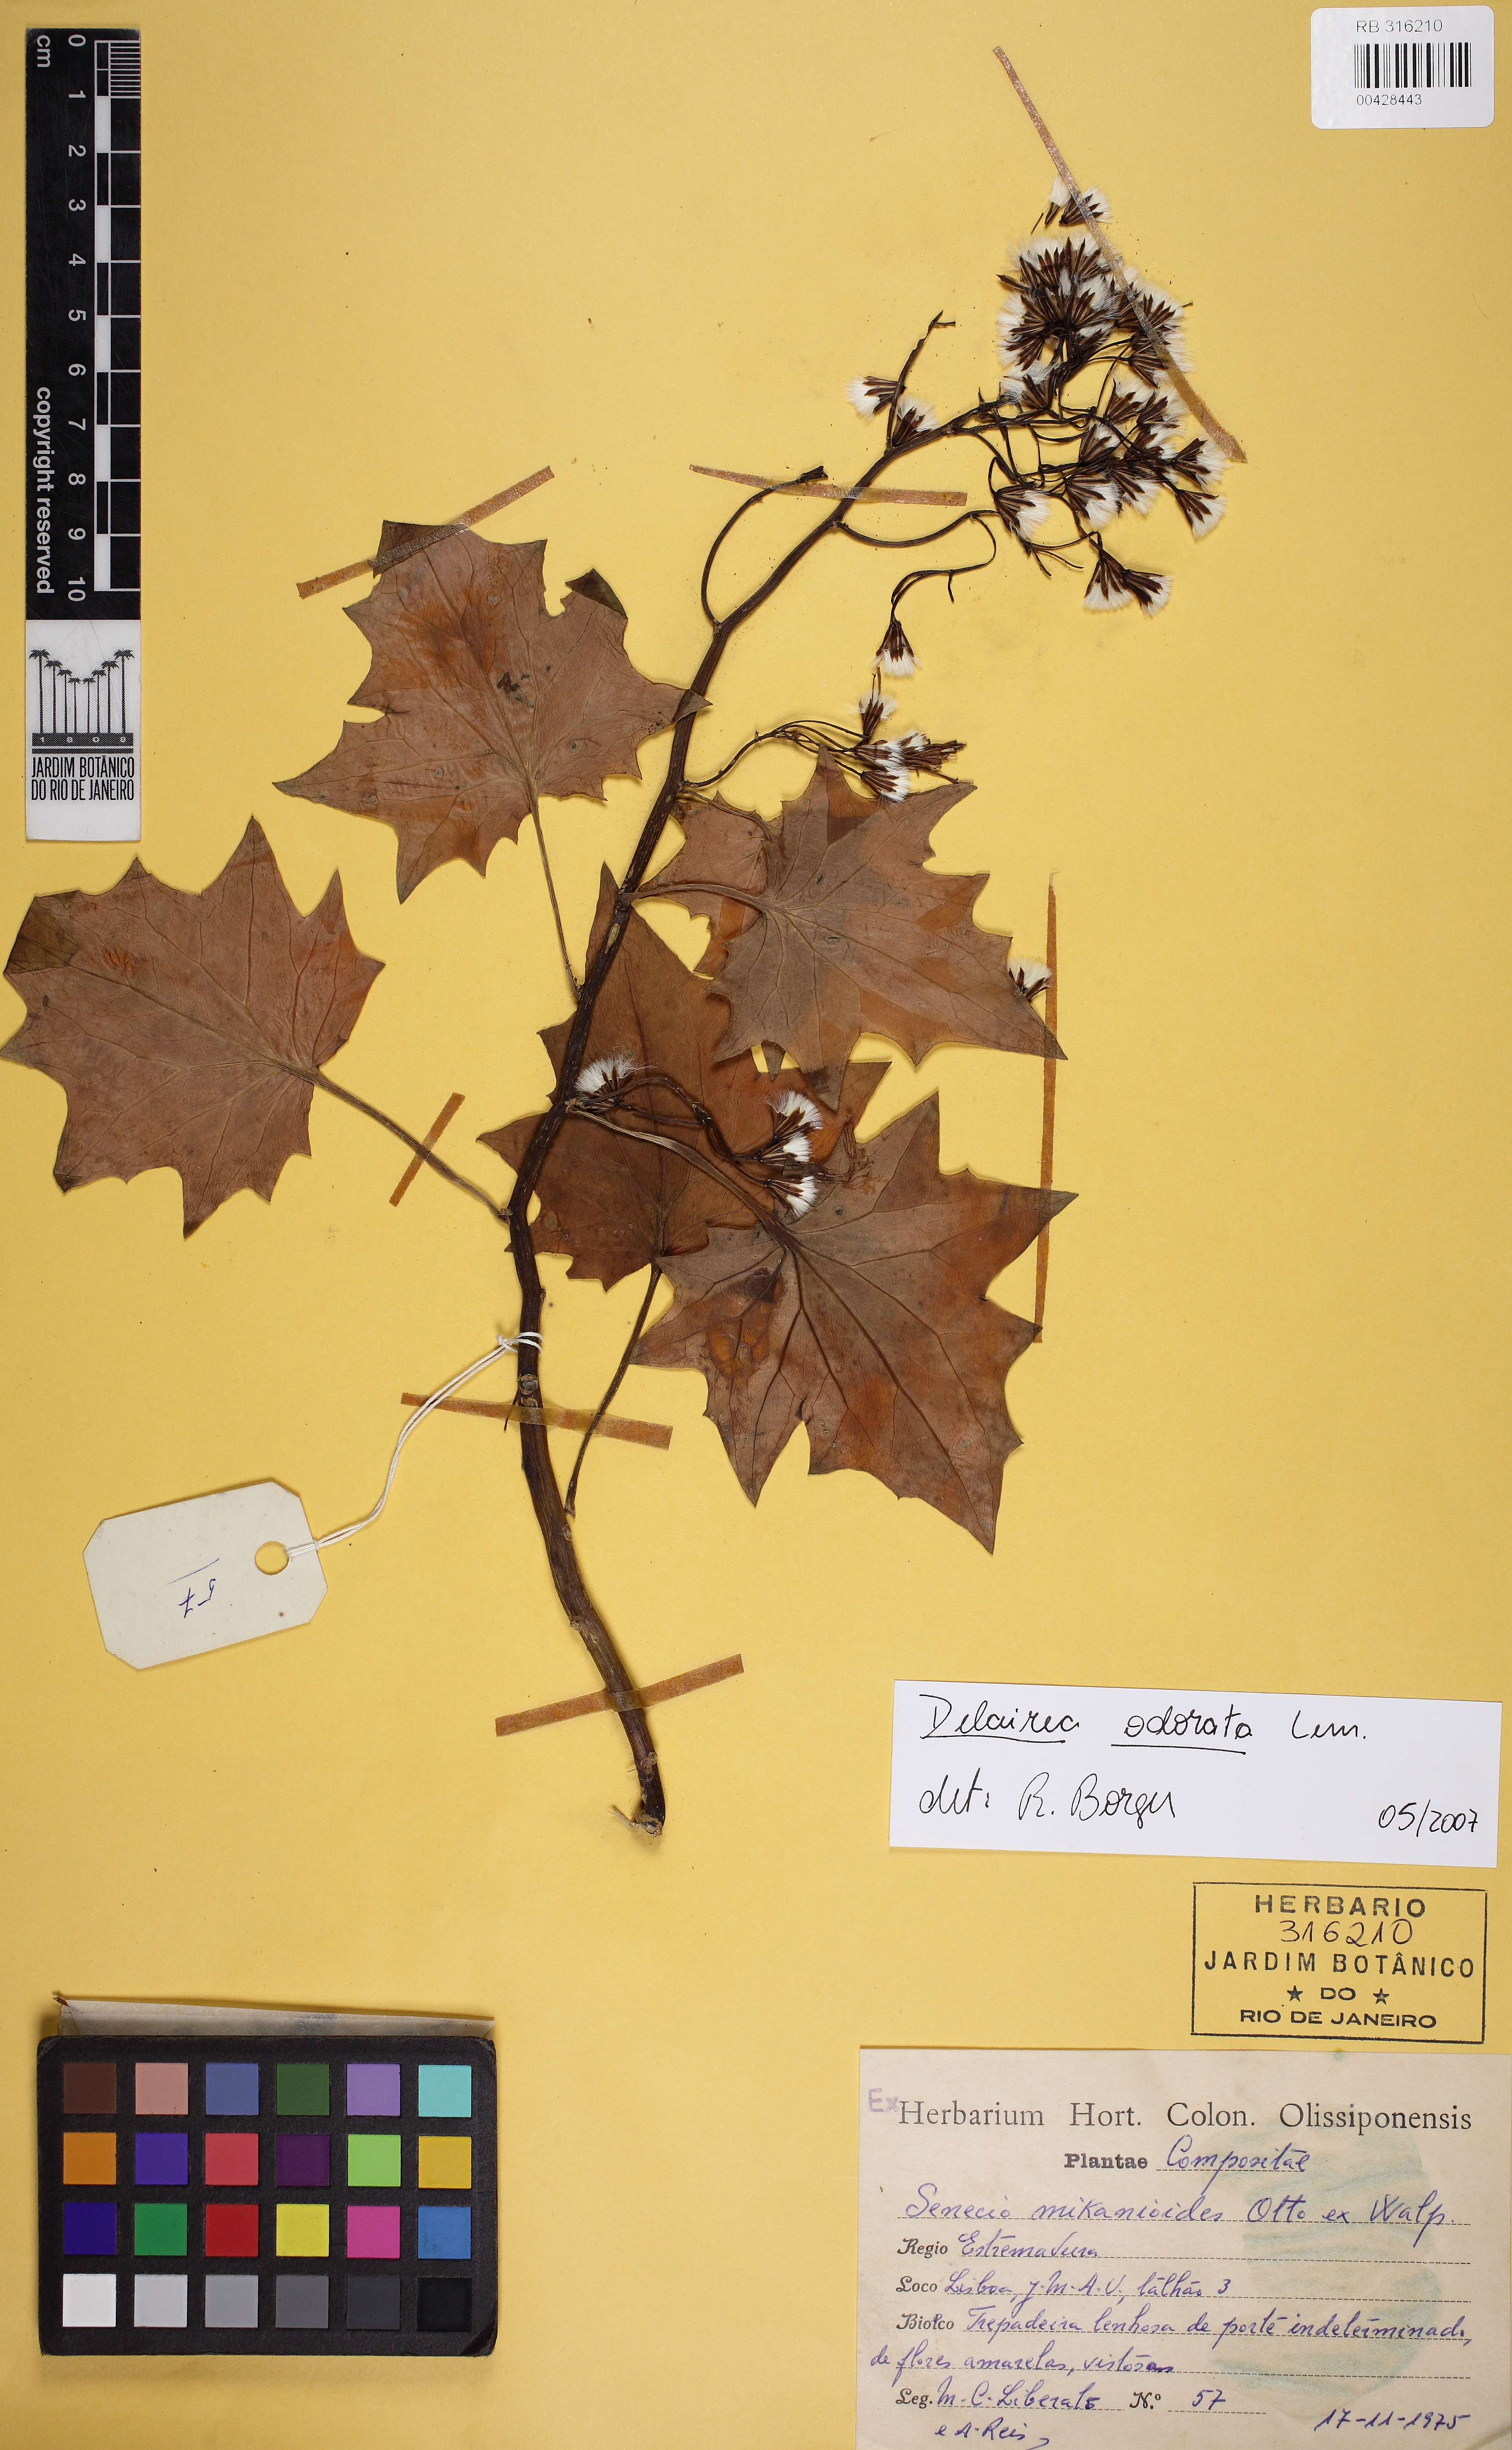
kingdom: Plantae
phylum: Tracheophyta
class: Magnoliopsida
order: Asterales
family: Asteraceae
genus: Delairea
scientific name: Delairea odorata
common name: Cape-ivy
